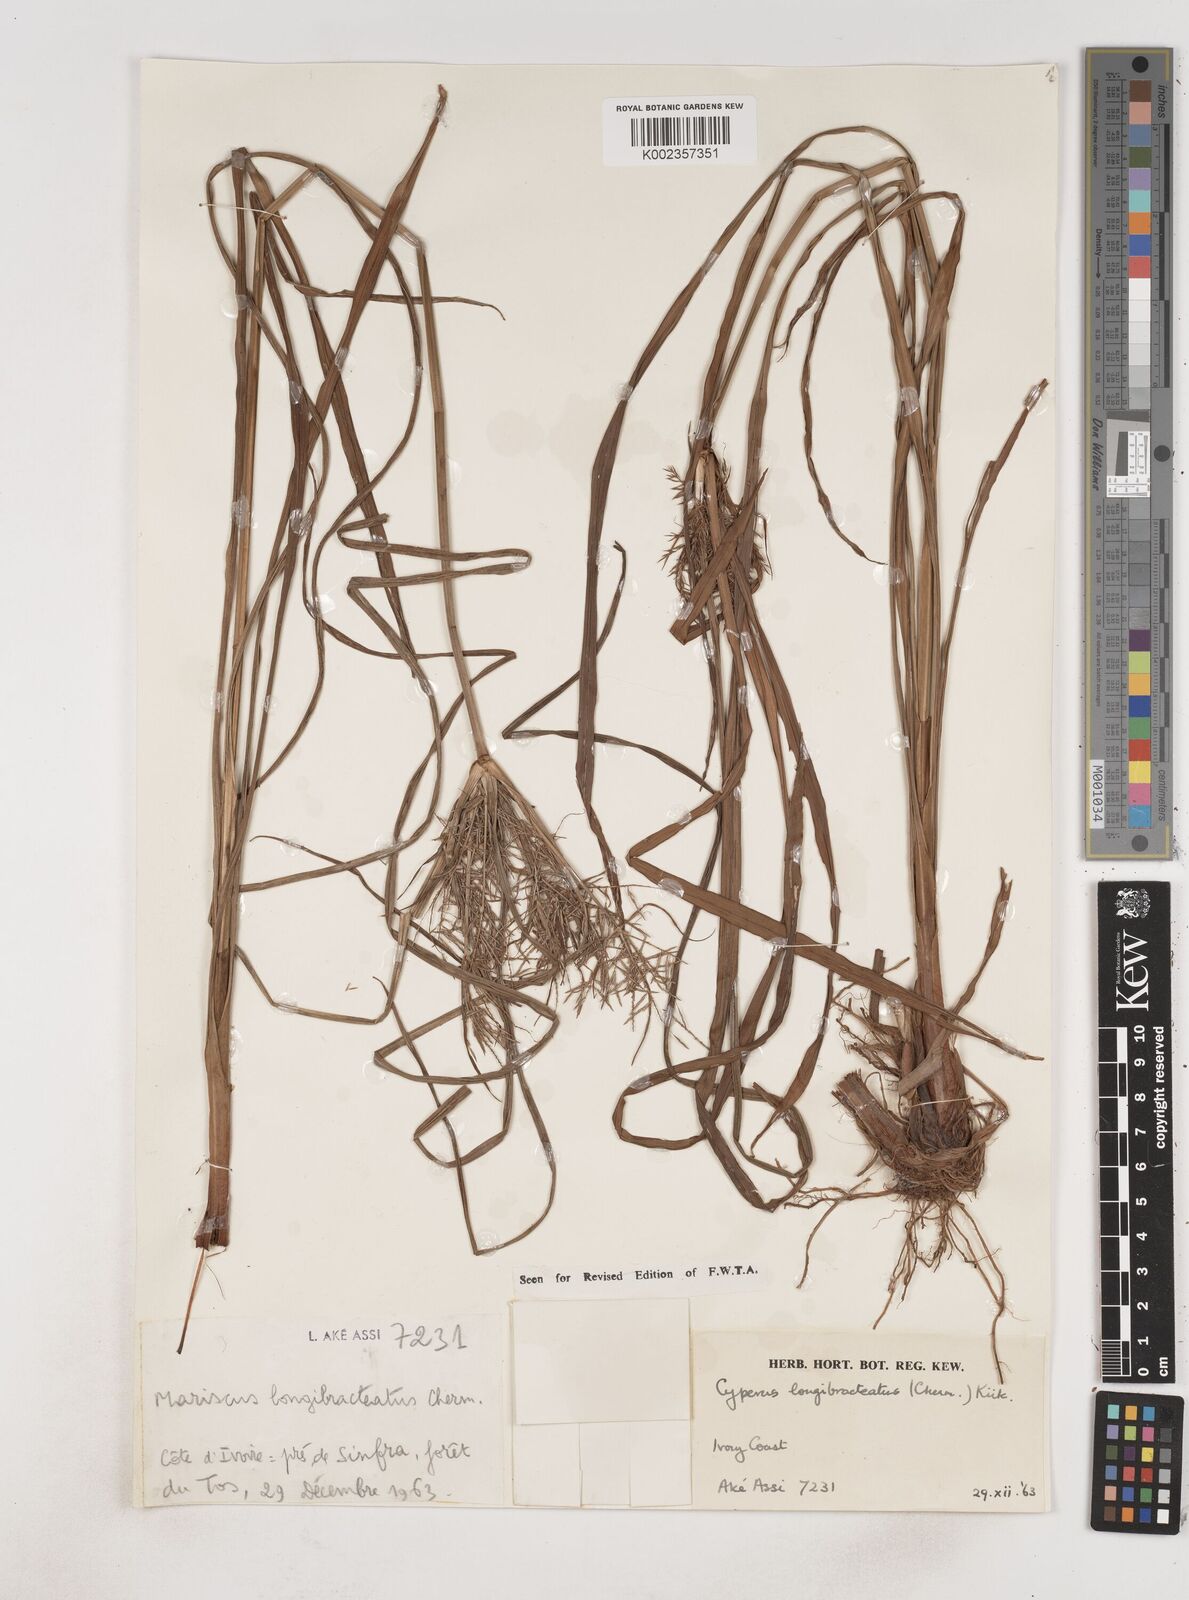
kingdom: Plantae
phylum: Tracheophyta
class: Liliopsida
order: Poales
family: Cyperaceae
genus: Cyperus
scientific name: Cyperus distans
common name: Slender cyperus
